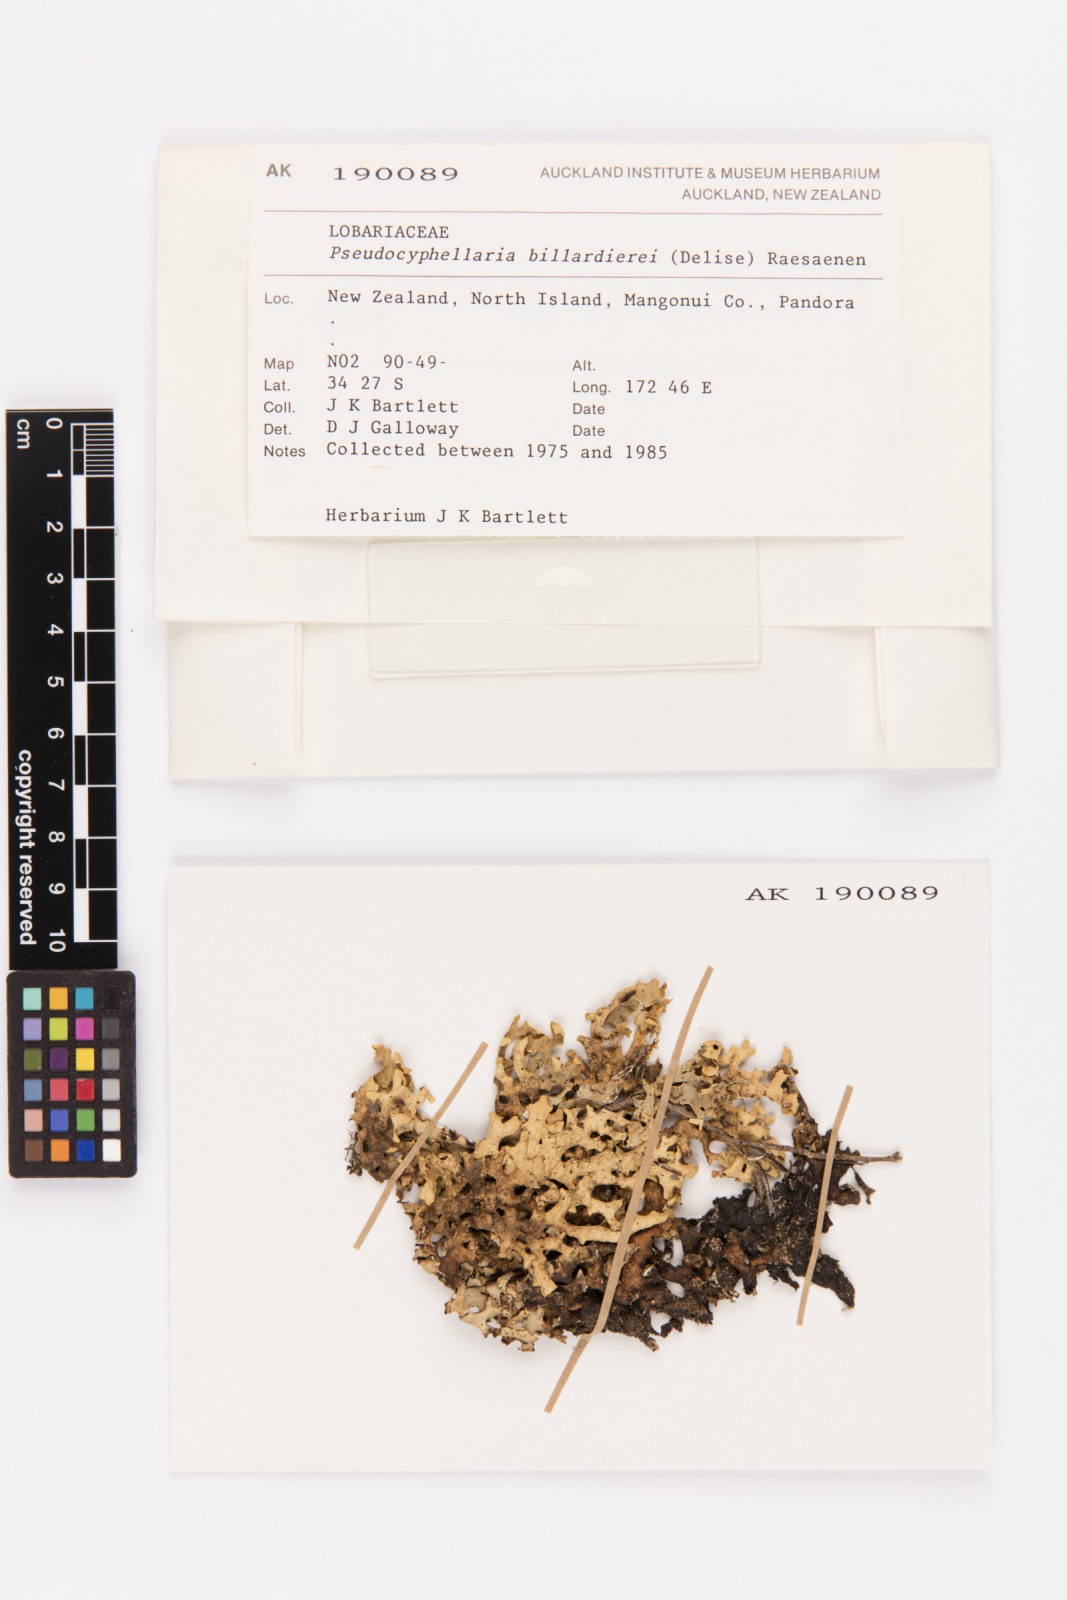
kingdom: Fungi
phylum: Ascomycota
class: Lecanoromycetes
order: Peltigerales
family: Lobariaceae
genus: Pseudocyphellaria
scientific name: Pseudocyphellaria billardierei
